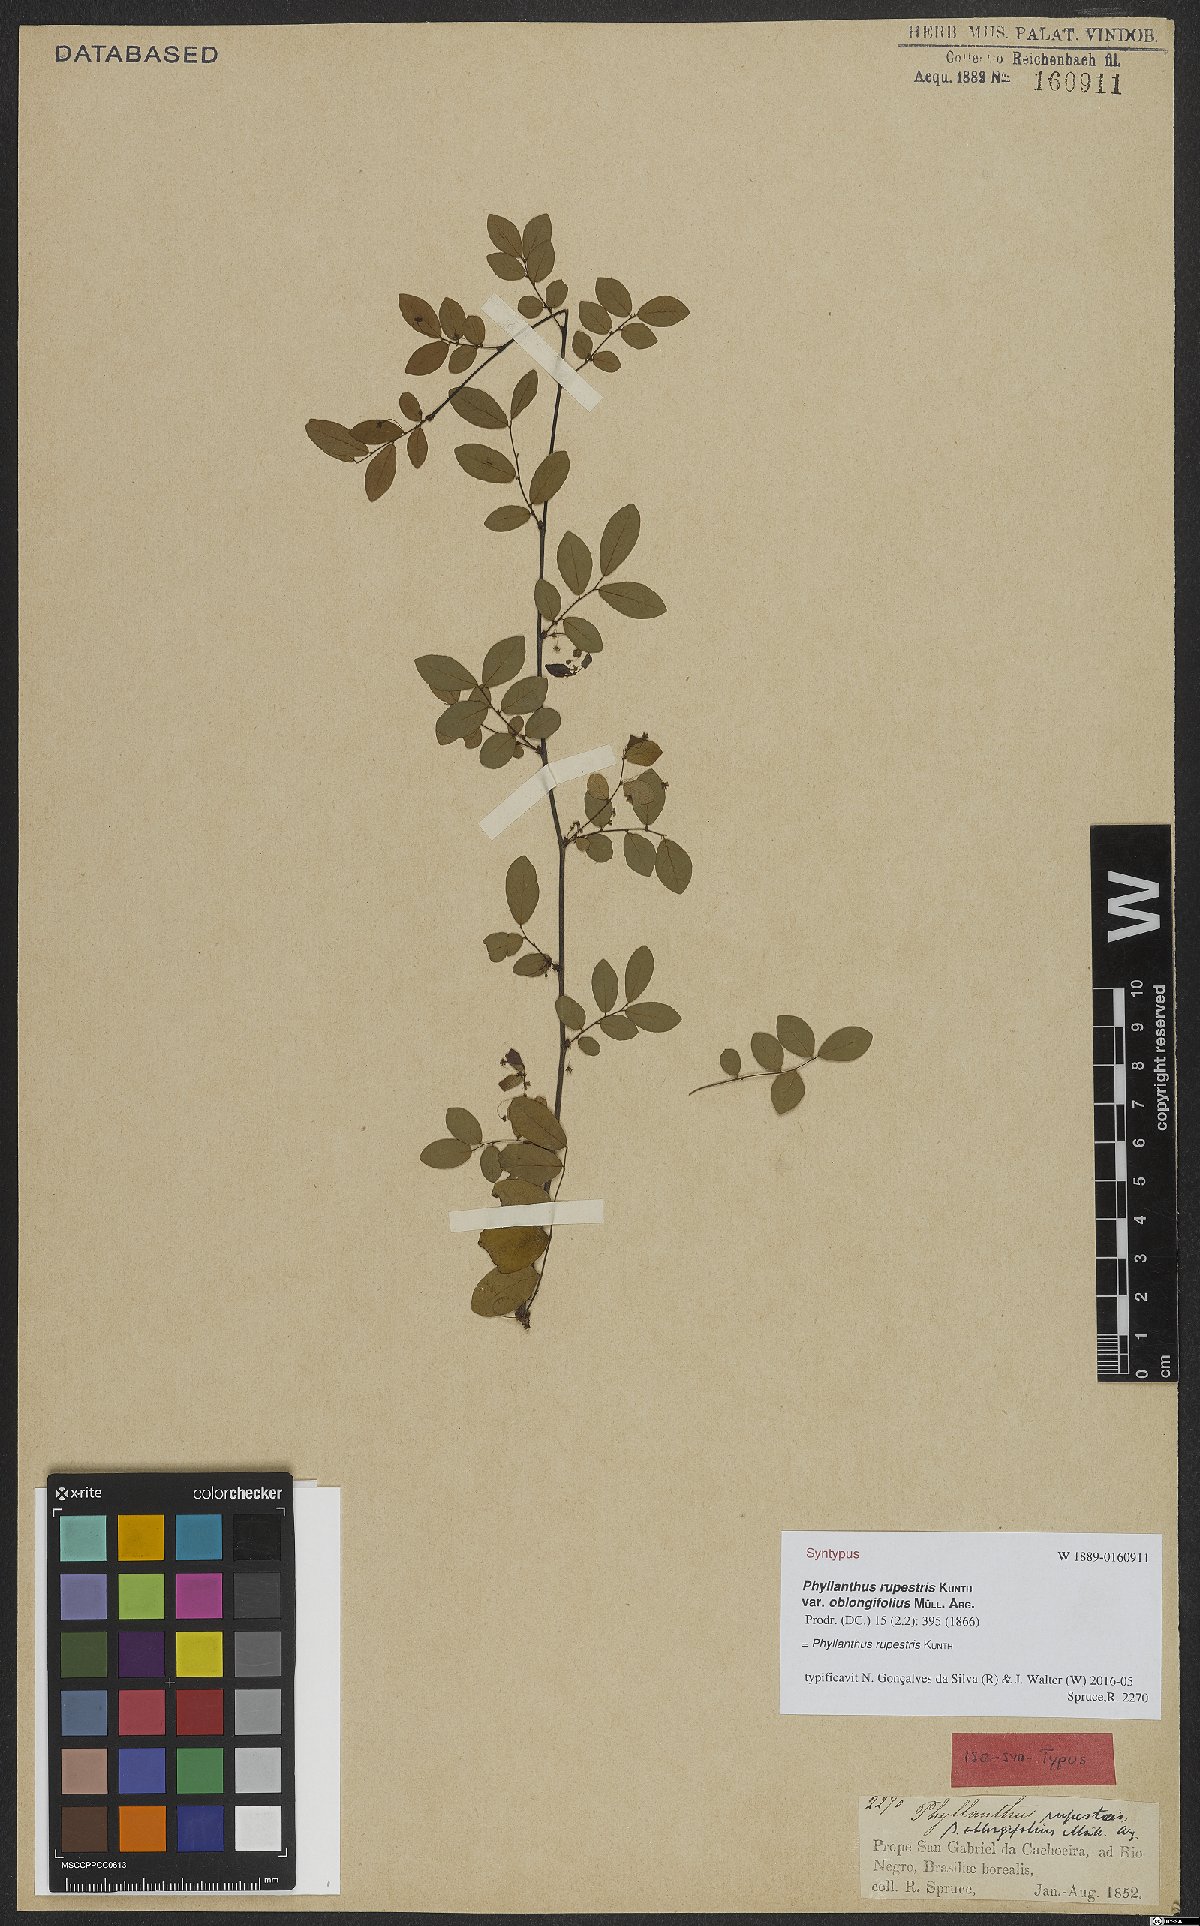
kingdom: Plantae
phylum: Tracheophyta
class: Magnoliopsida
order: Malpighiales
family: Phyllanthaceae
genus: Phyllanthus
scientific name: Phyllanthus rupestris
